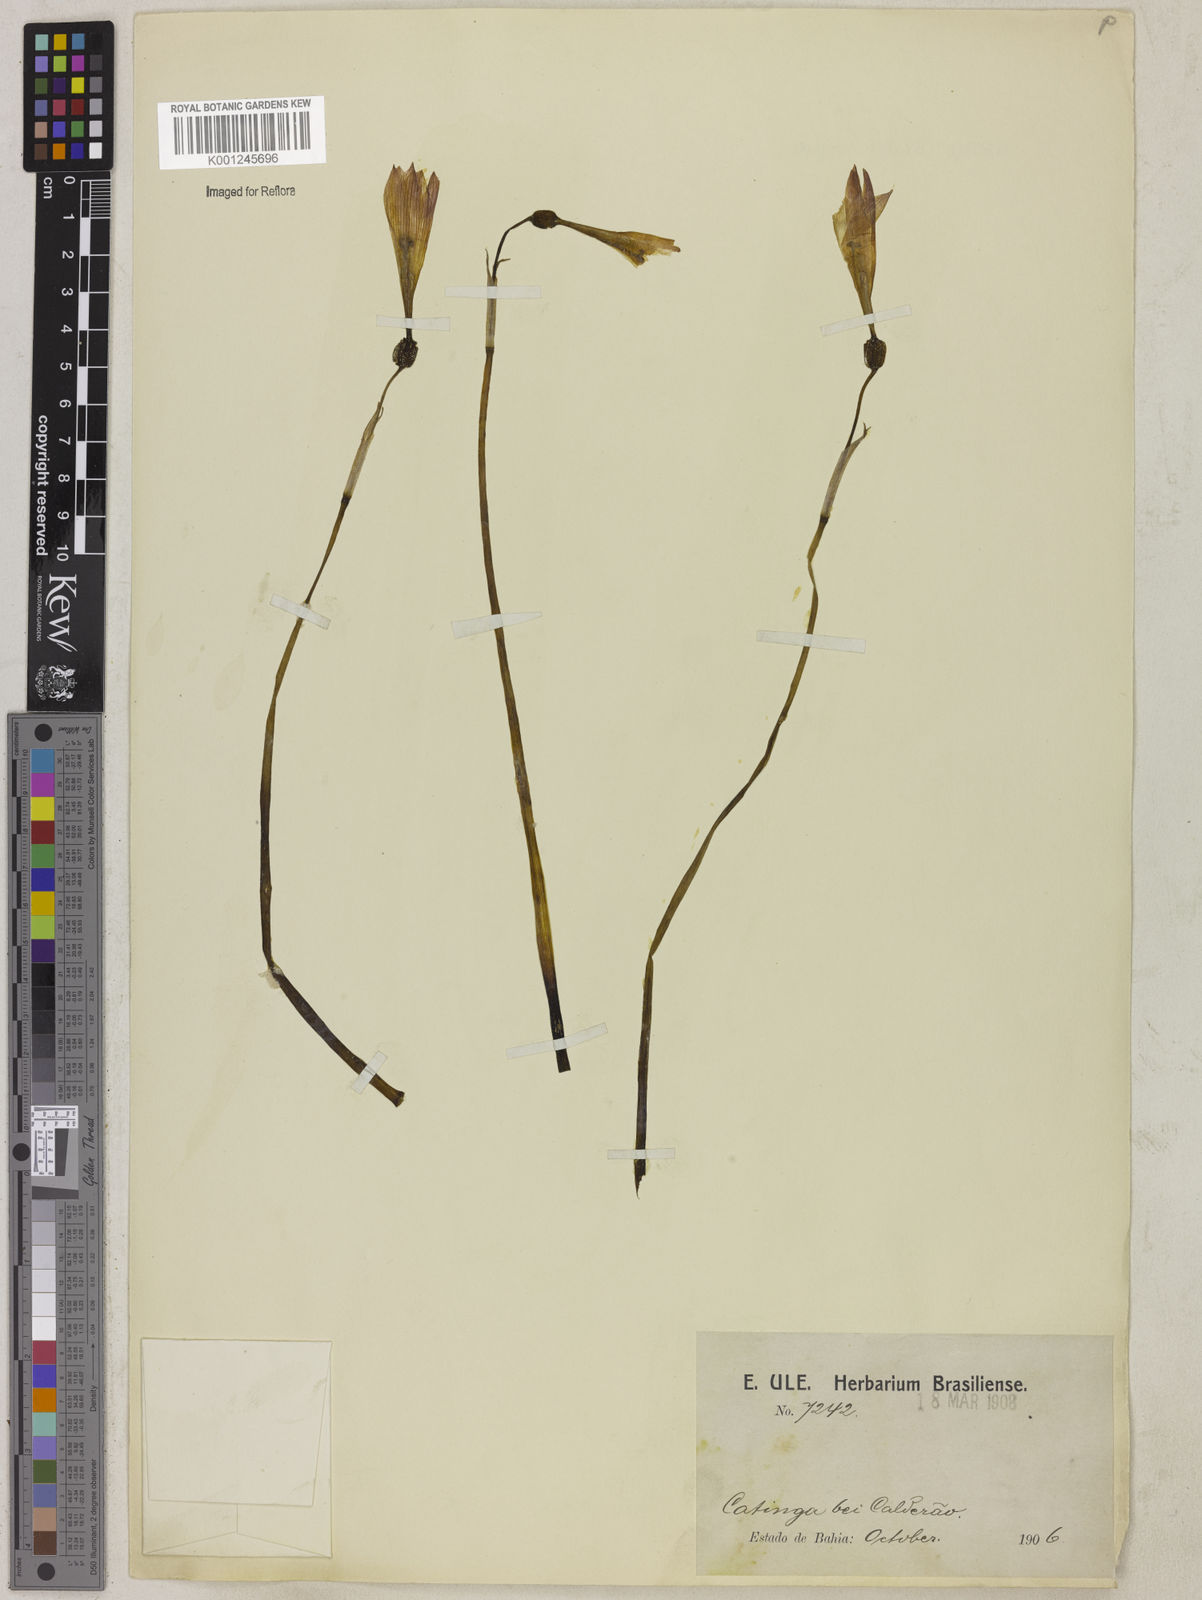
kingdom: Plantae
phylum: Tracheophyta
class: Liliopsida
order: Asparagales
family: Amaryllidaceae
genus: Zephyranthes
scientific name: Zephyranthes sylvatica
